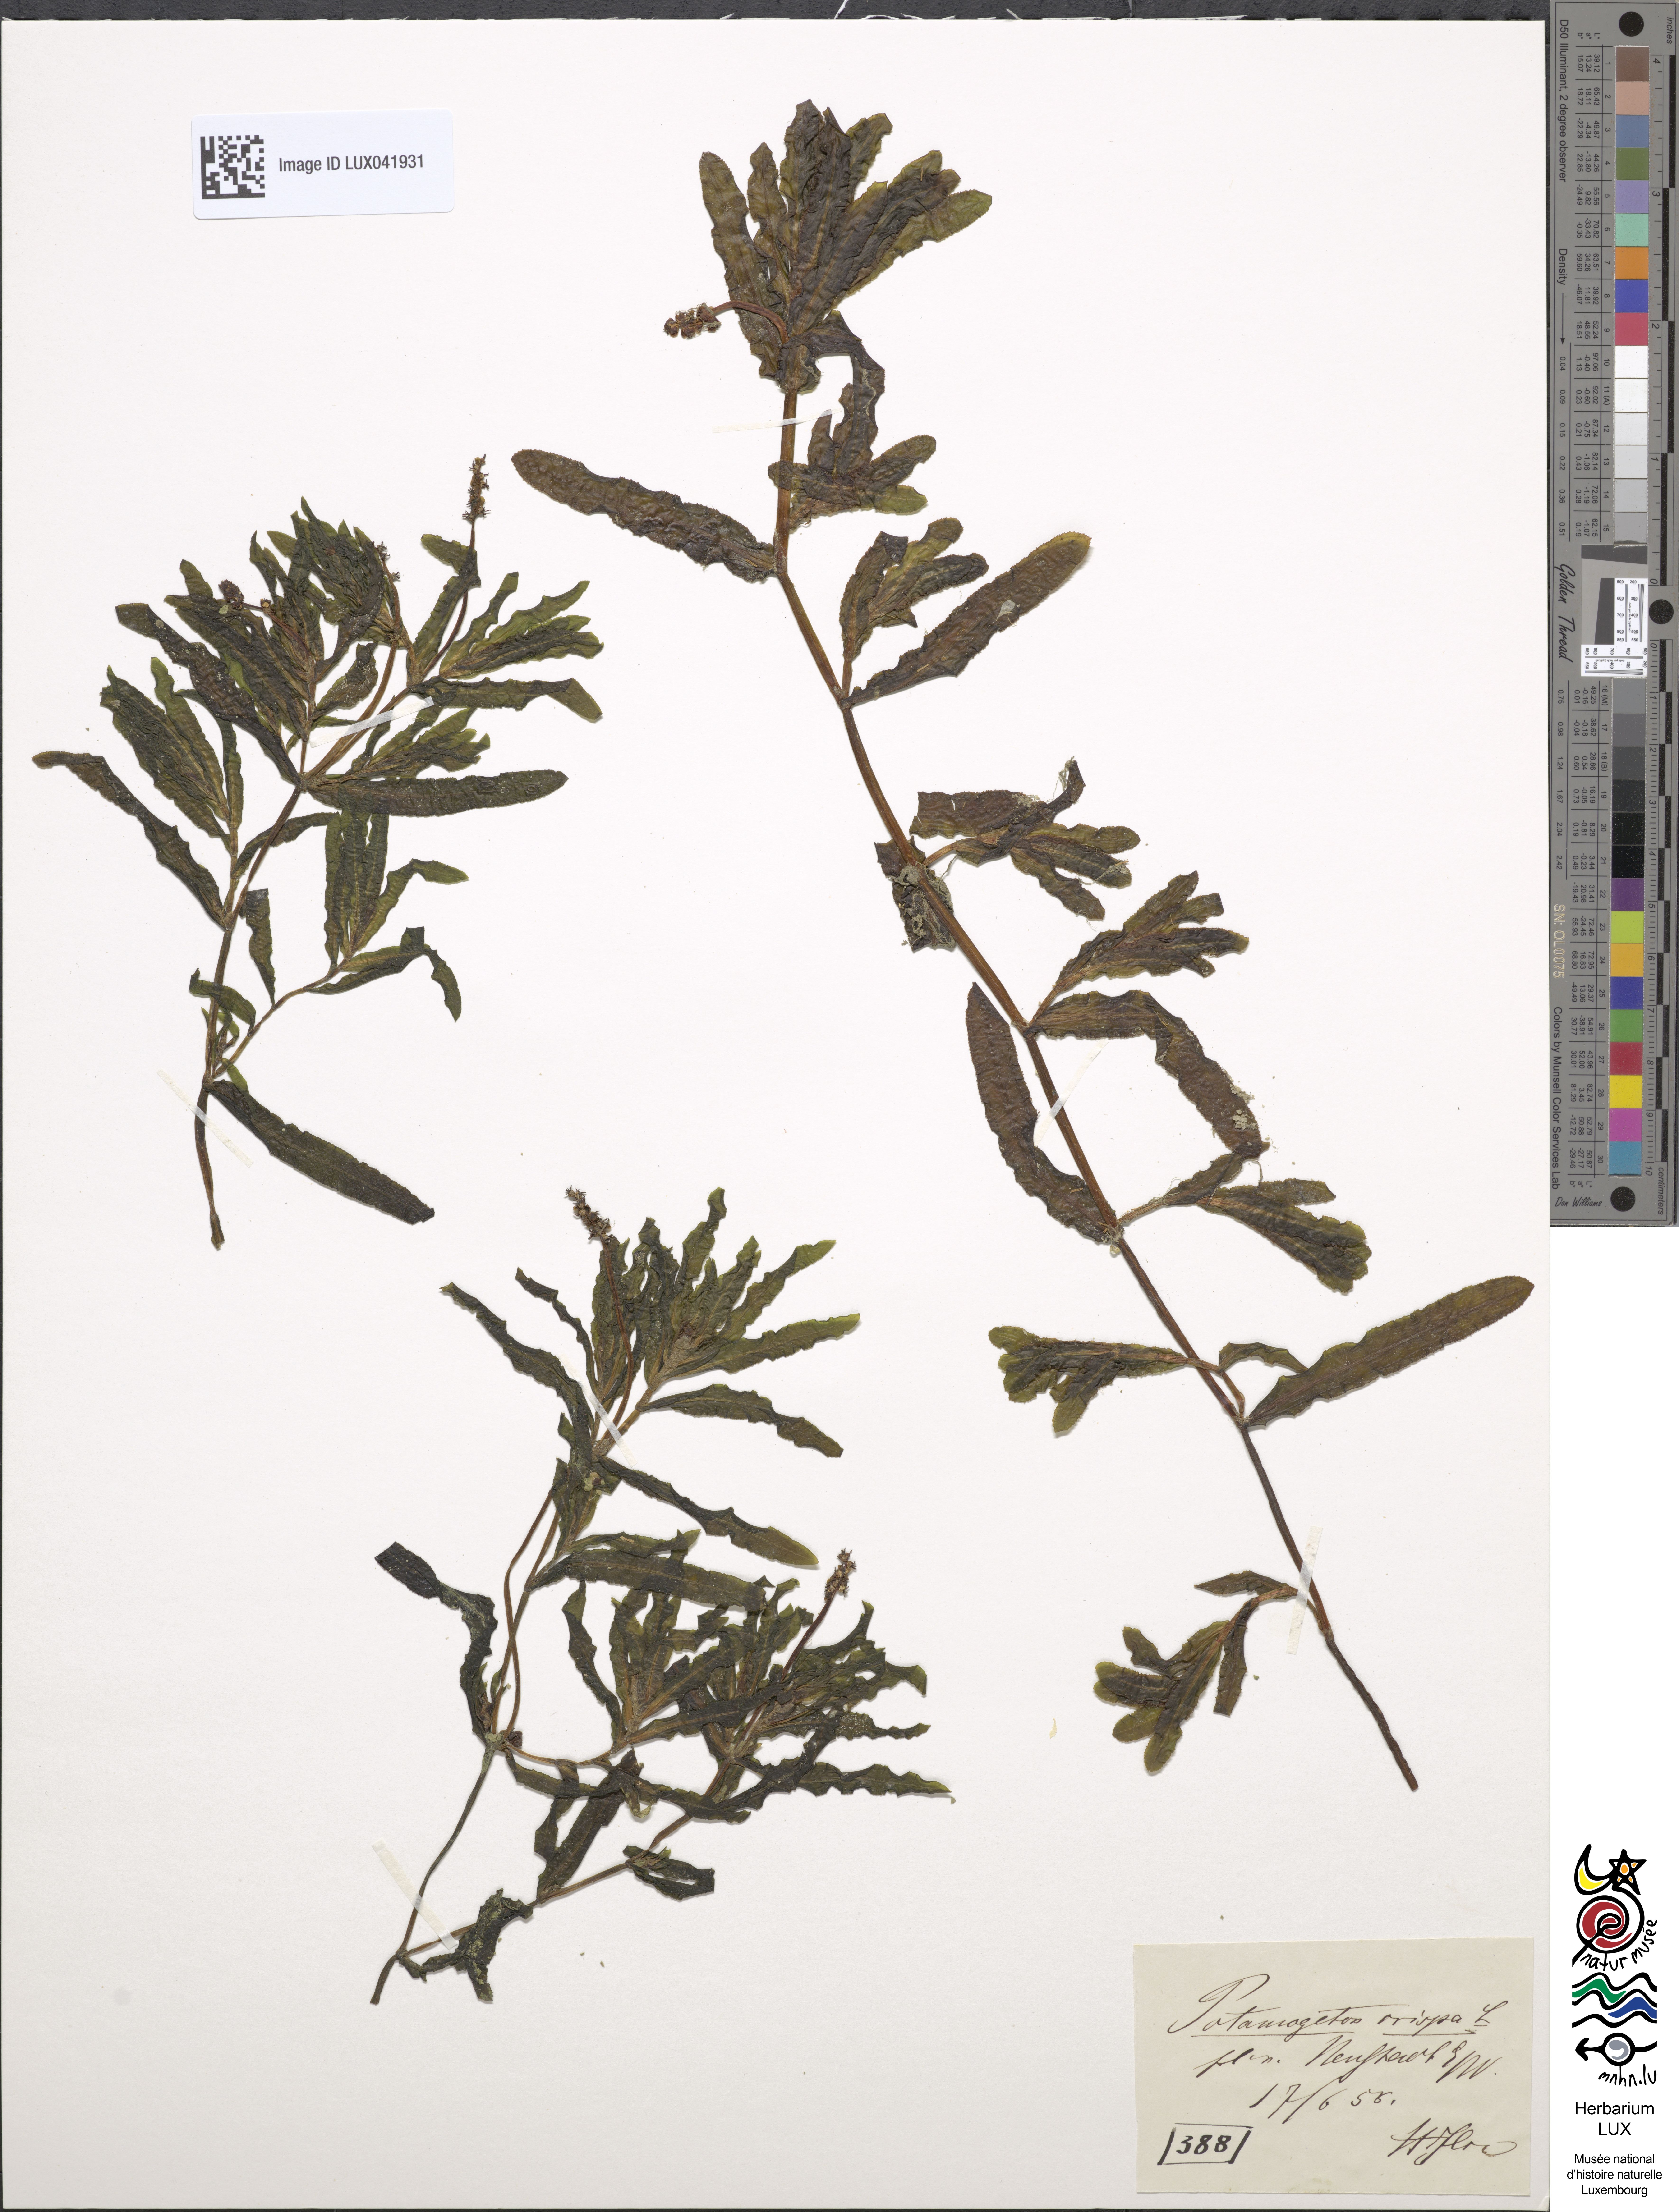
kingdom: Plantae
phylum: Tracheophyta
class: Liliopsida
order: Alismatales
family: Potamogetonaceae
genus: Potamogeton
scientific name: Potamogeton crispus
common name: Curled pondweed
